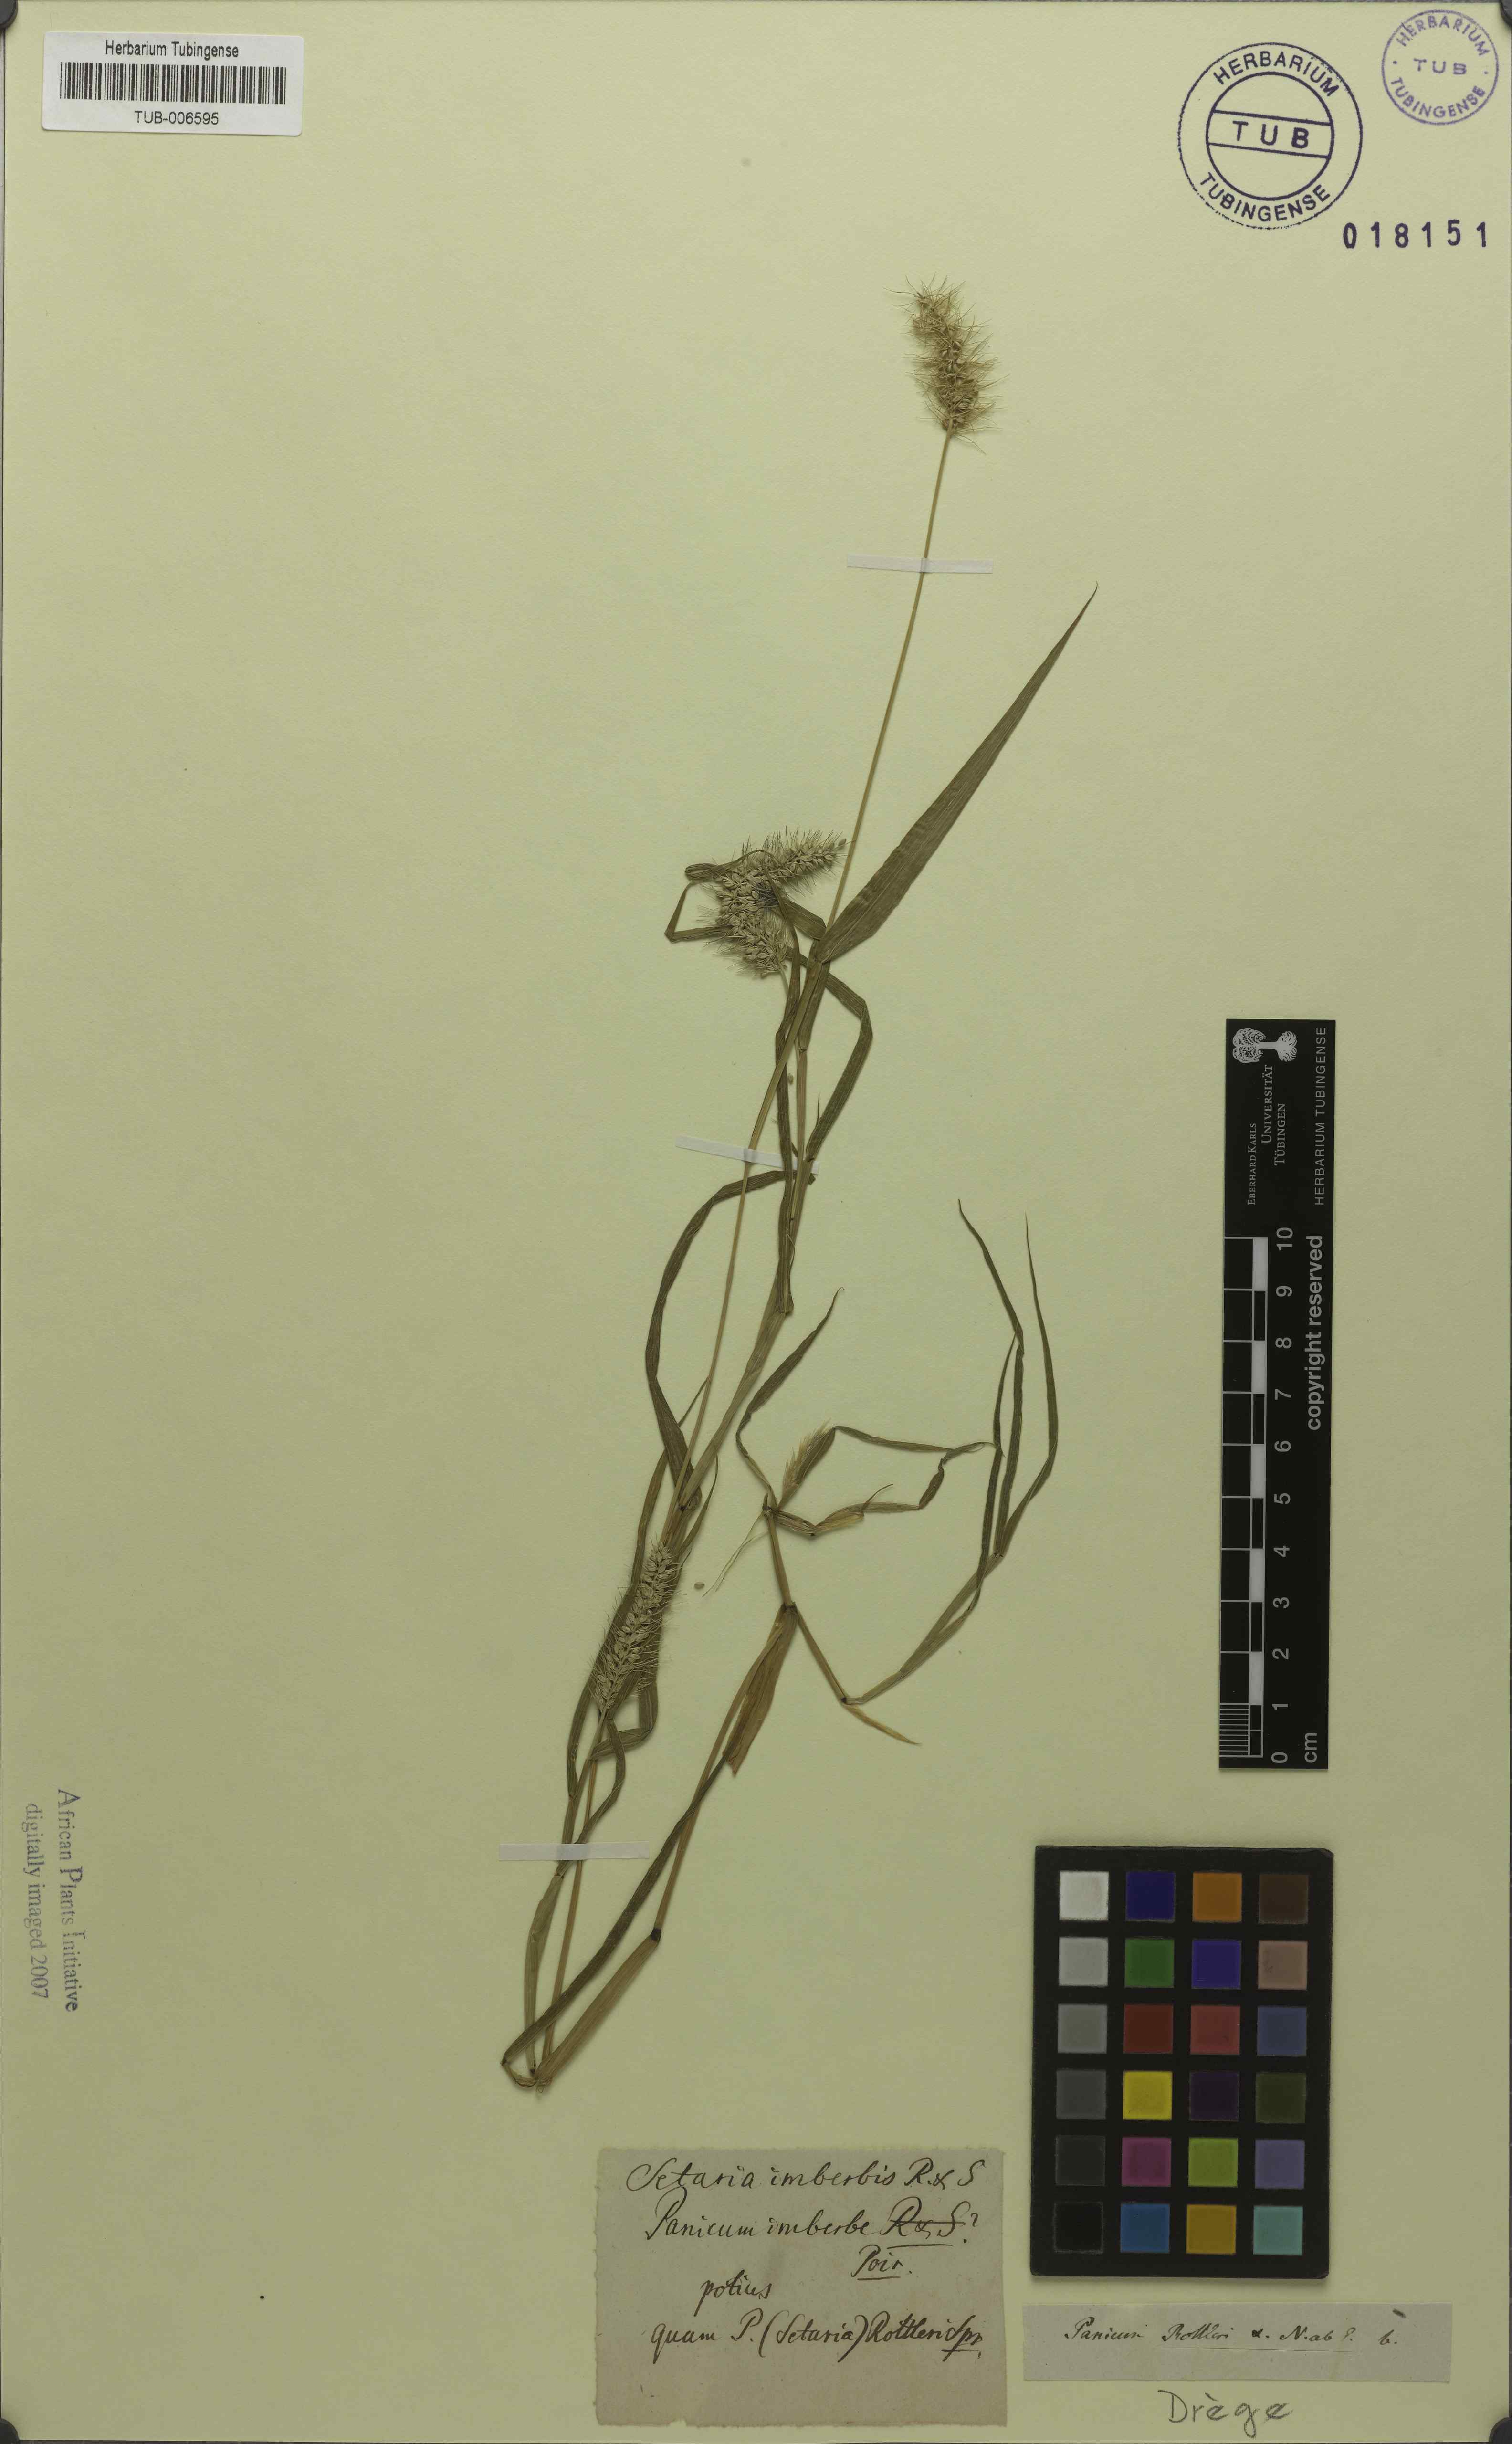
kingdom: Plantae
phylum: Tracheophyta
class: Liliopsida
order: Poales
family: Poaceae
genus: Setaria
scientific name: Setaria viridis
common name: Green bristlegrass
